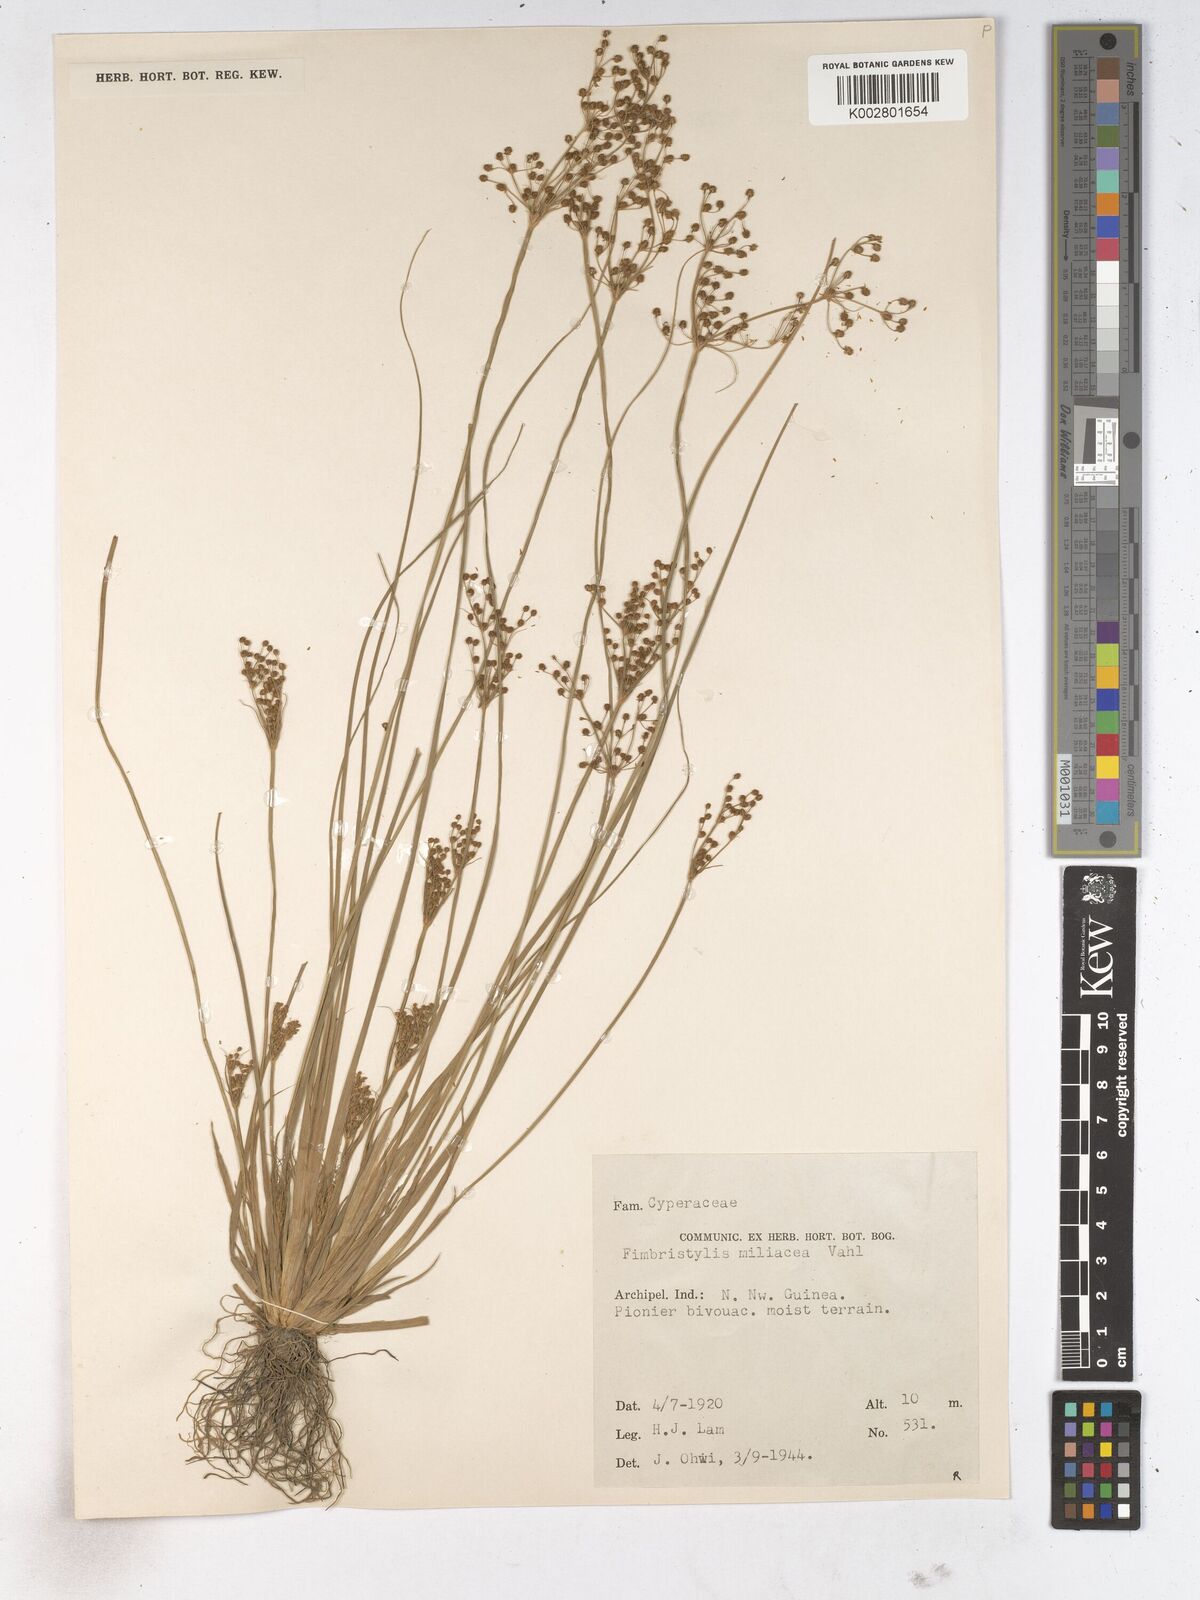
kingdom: Plantae
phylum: Tracheophyta
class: Liliopsida
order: Poales
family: Cyperaceae
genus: Fimbristylis
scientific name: Fimbristylis littoralis
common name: Fimbry
